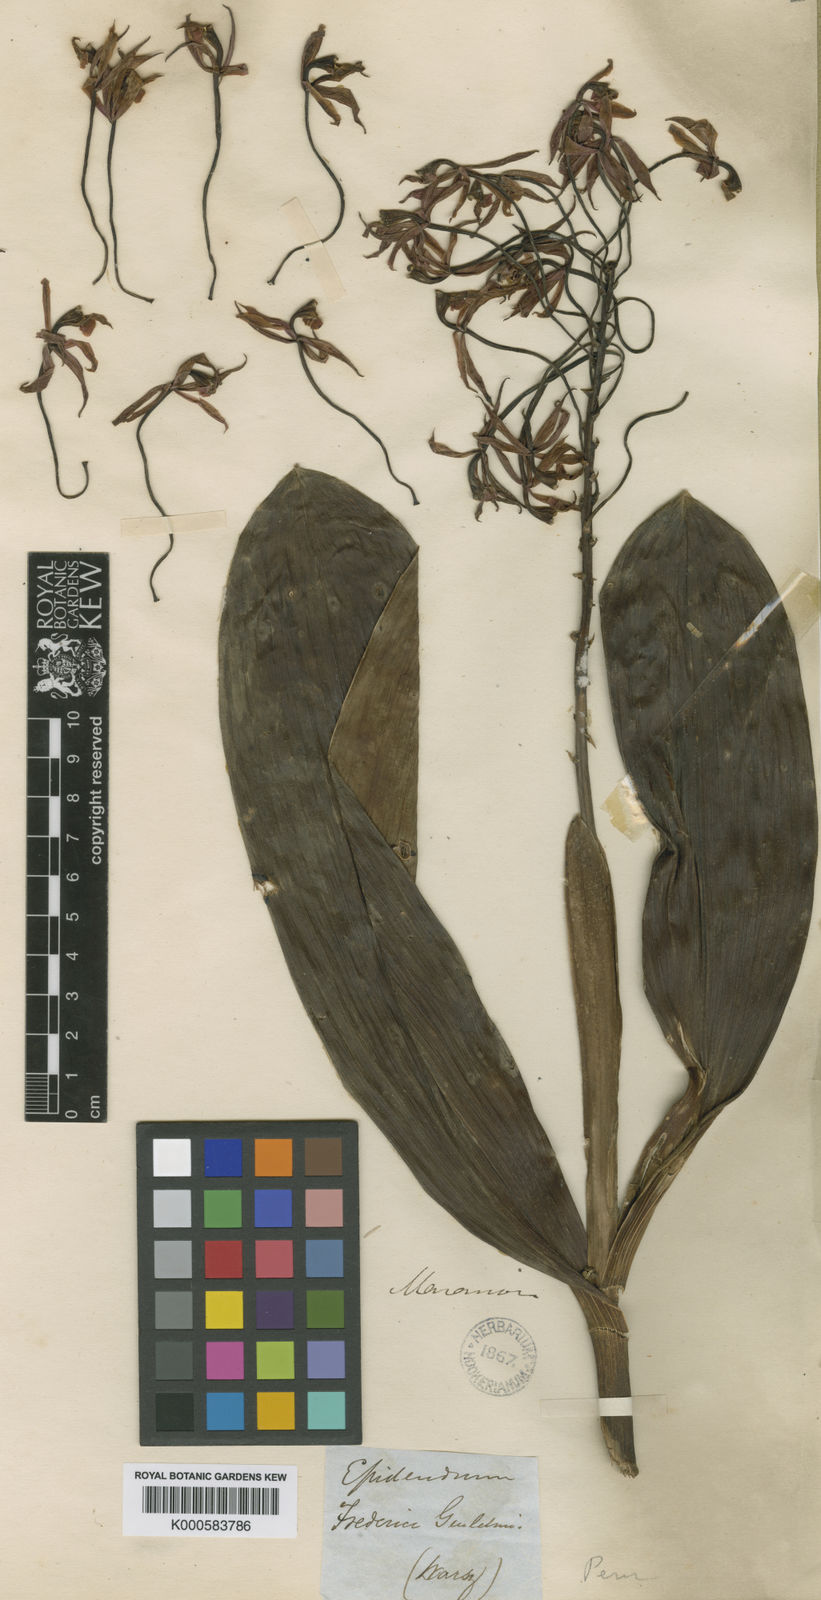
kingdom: Plantae
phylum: Tracheophyta
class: Liliopsida
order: Asparagales
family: Orchidaceae
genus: Epidendrum
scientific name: Epidendrum friderici-guilielmi
